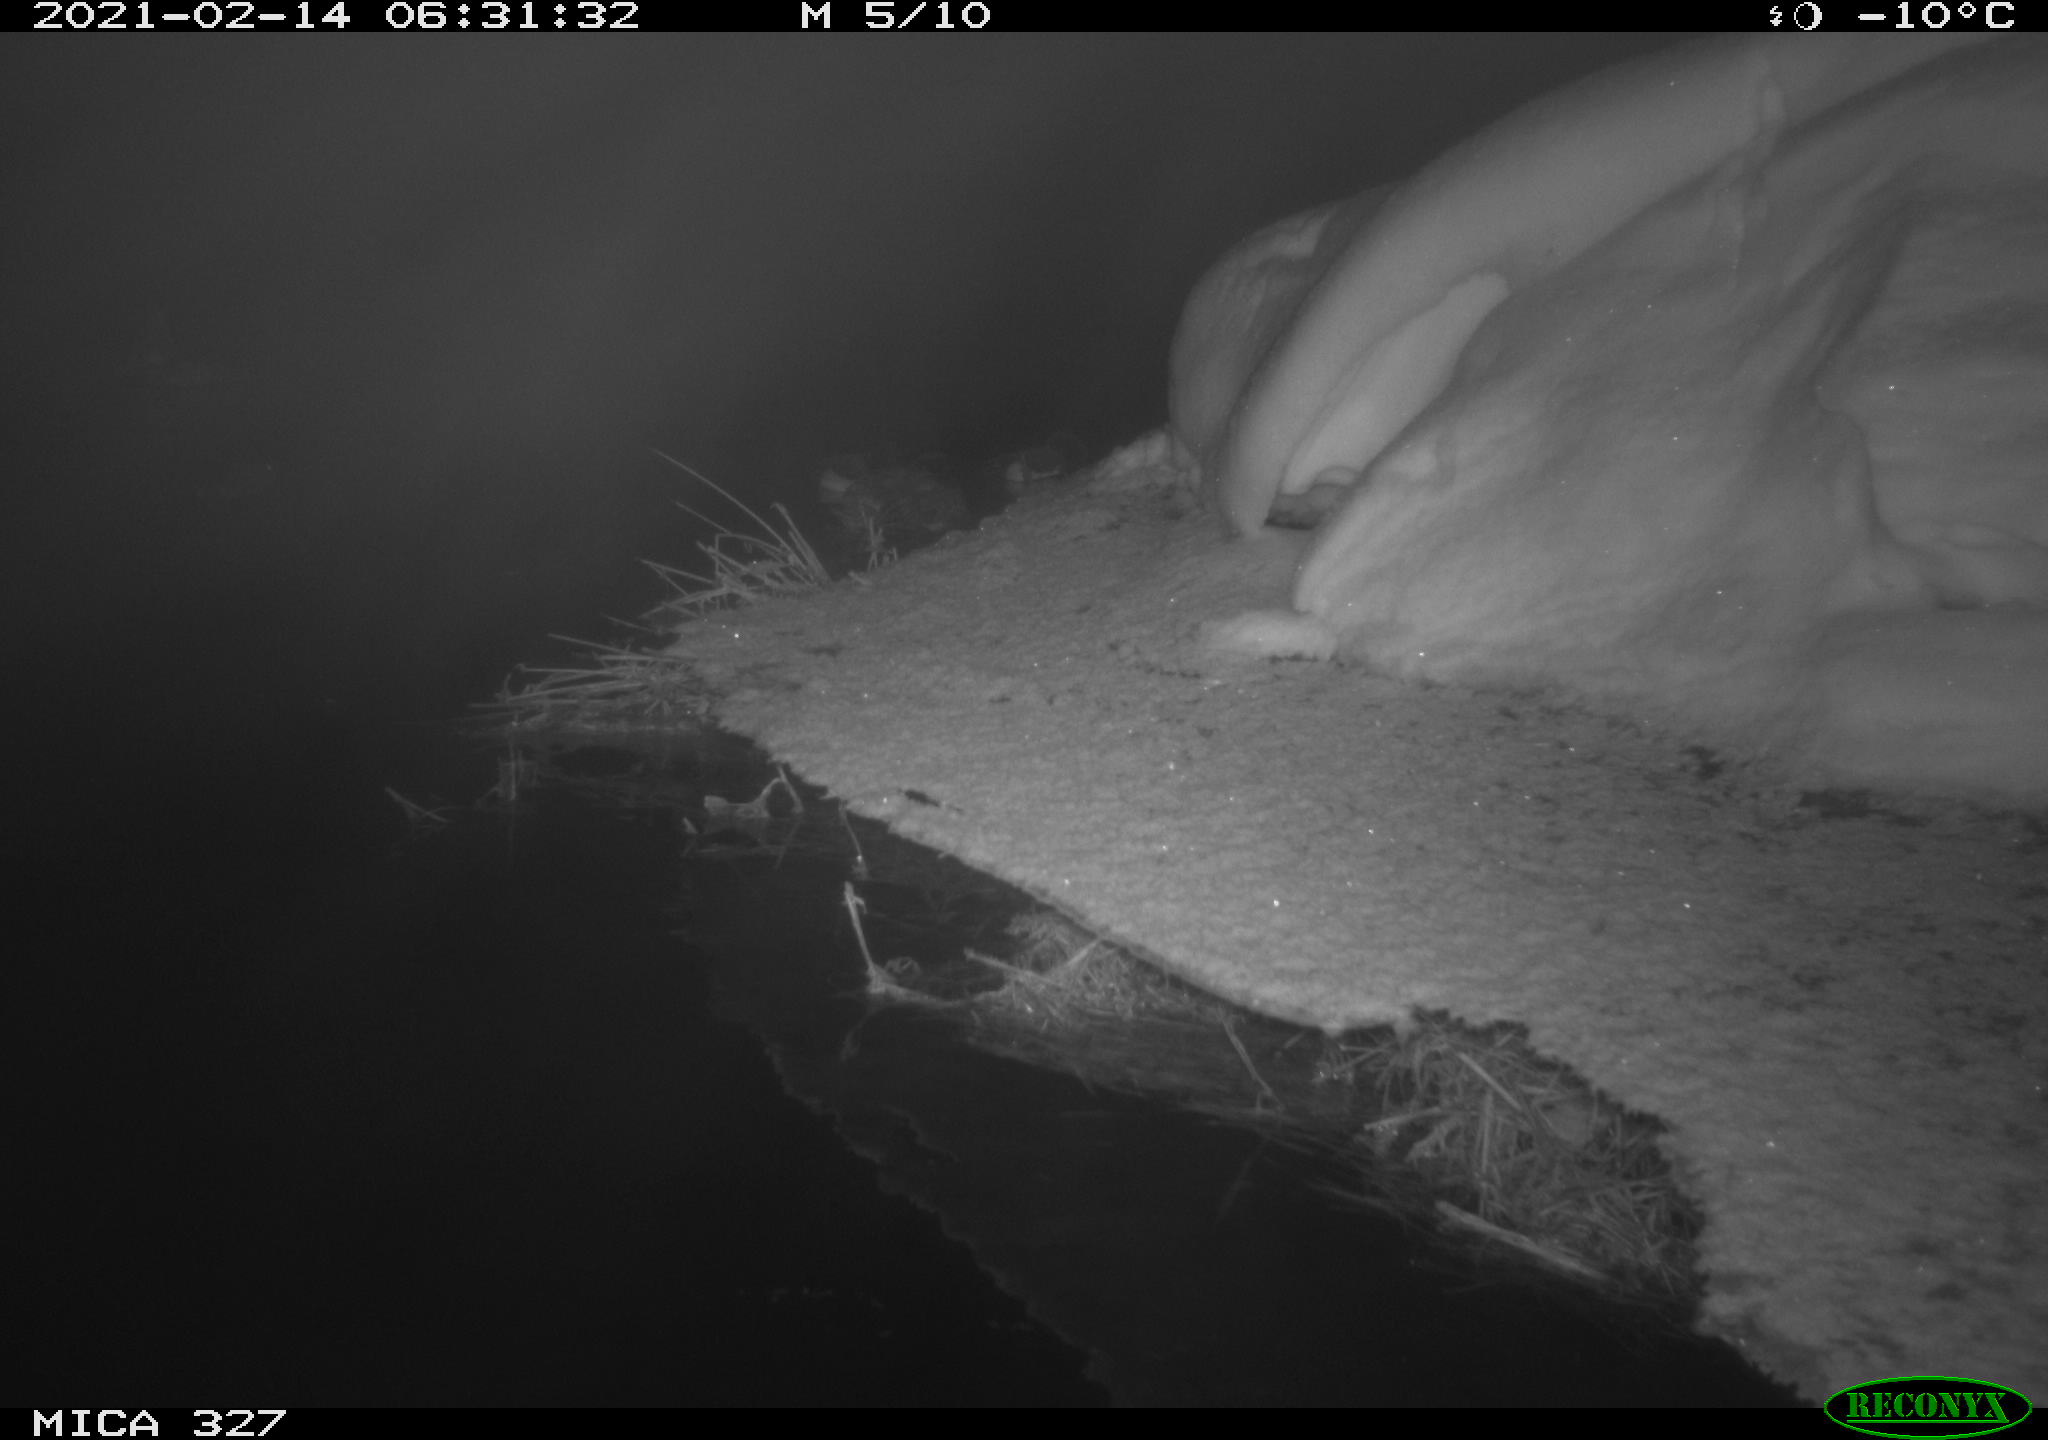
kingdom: Animalia
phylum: Chordata
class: Mammalia
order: Rodentia
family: Cricetidae
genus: Ondatra
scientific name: Ondatra zibethicus
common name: Muskrat
